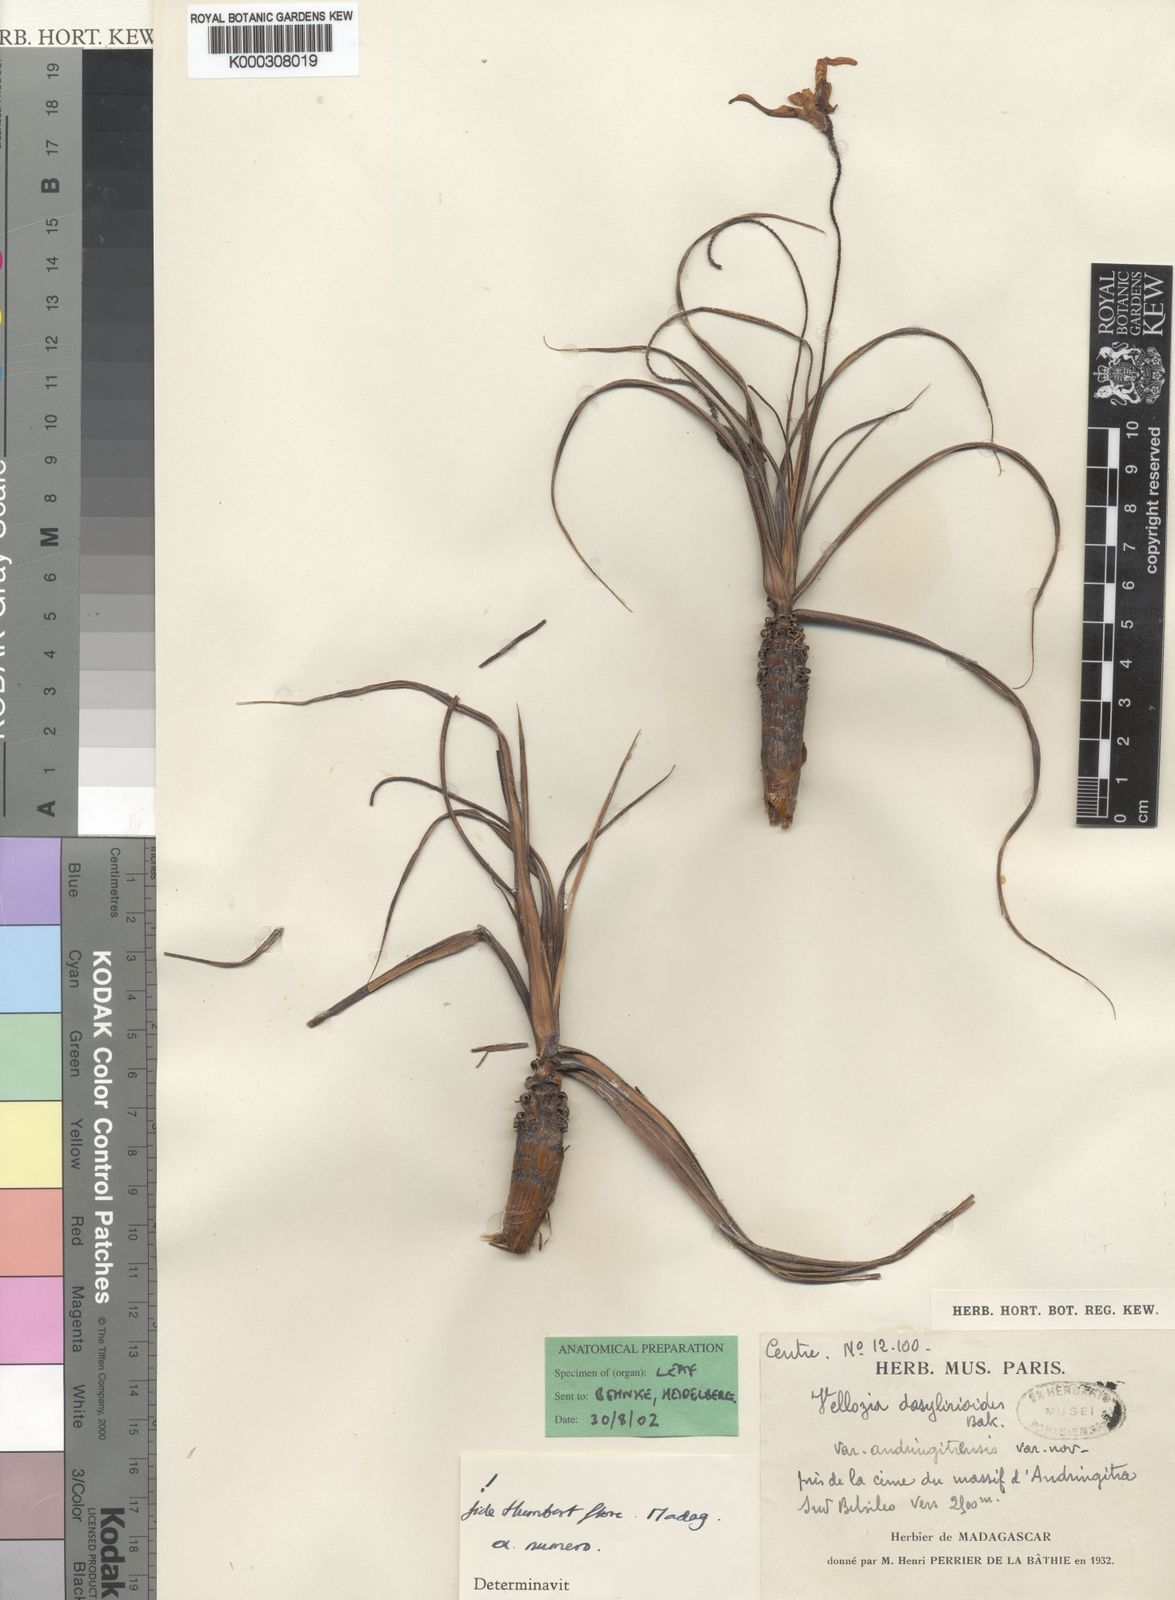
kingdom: Plantae
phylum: Tracheophyta
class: Liliopsida
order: Pandanales
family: Velloziaceae
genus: Xerophyta
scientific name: Xerophyta andringitrensis
